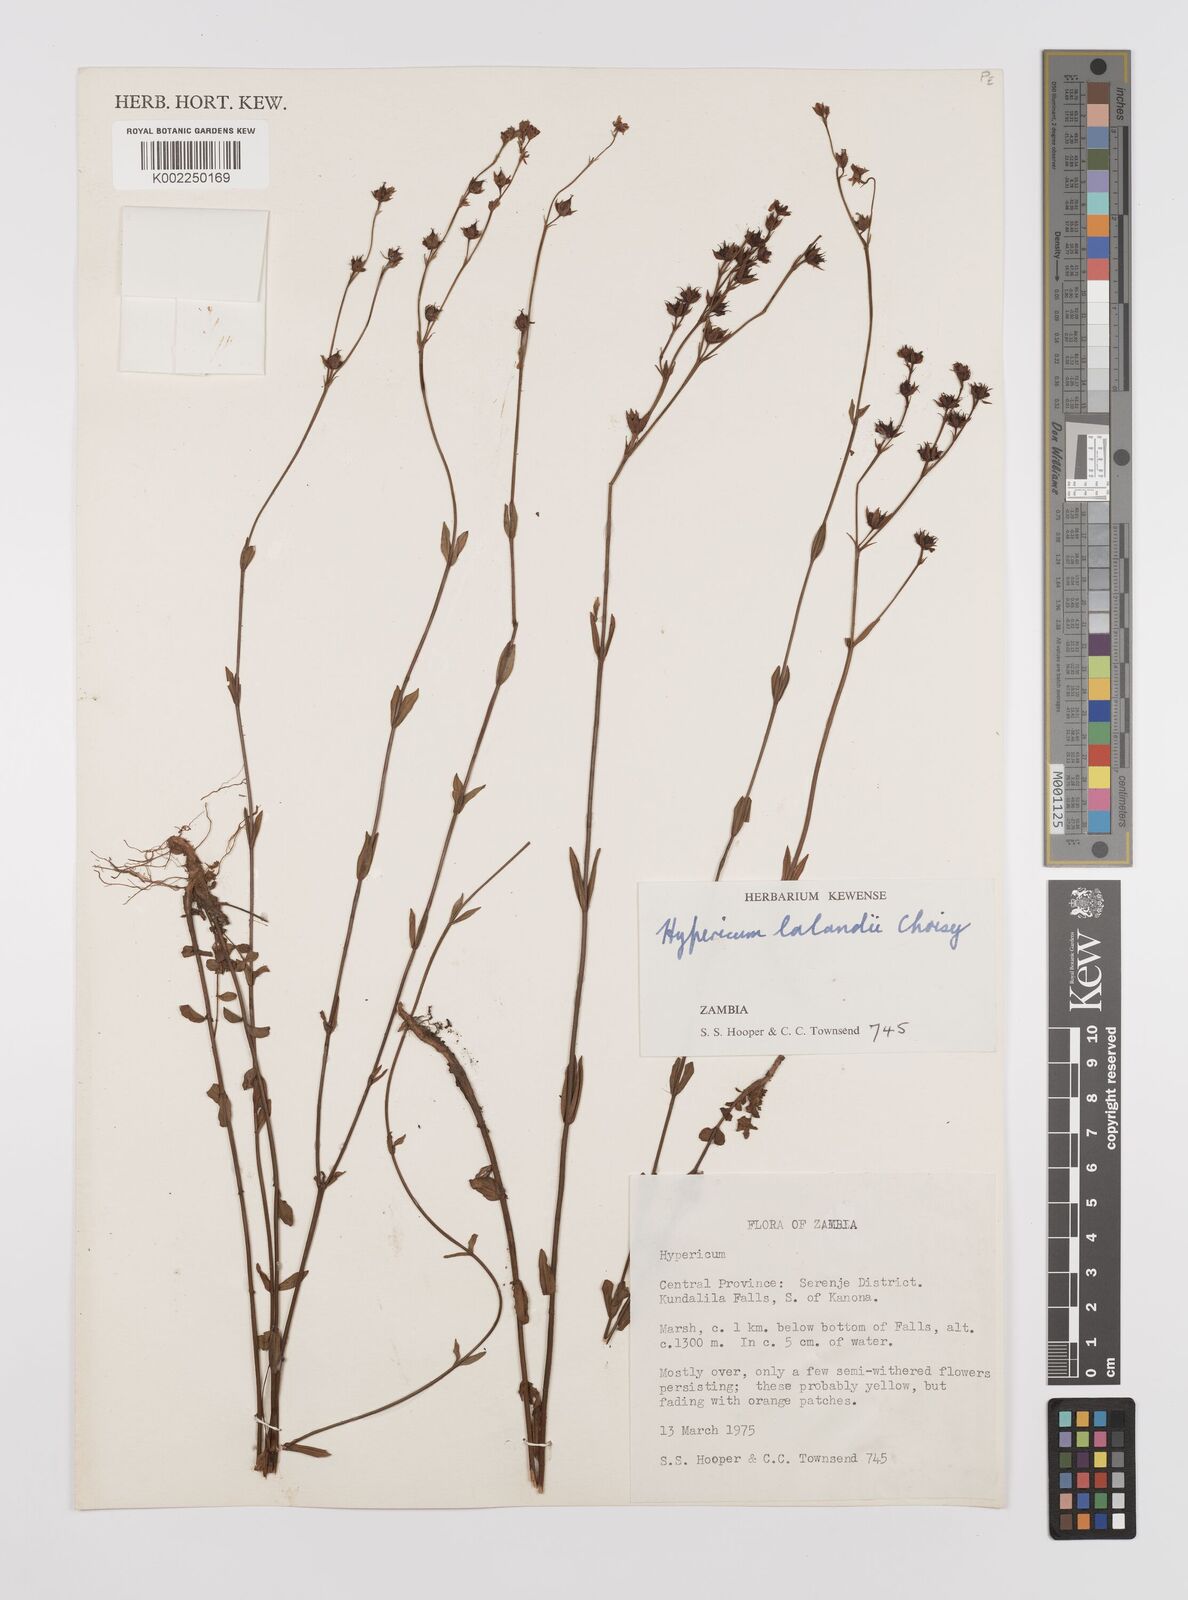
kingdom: Plantae
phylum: Tracheophyta
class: Magnoliopsida
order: Malpighiales
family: Hypericaceae
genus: Hypericum
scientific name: Hypericum lalandii
